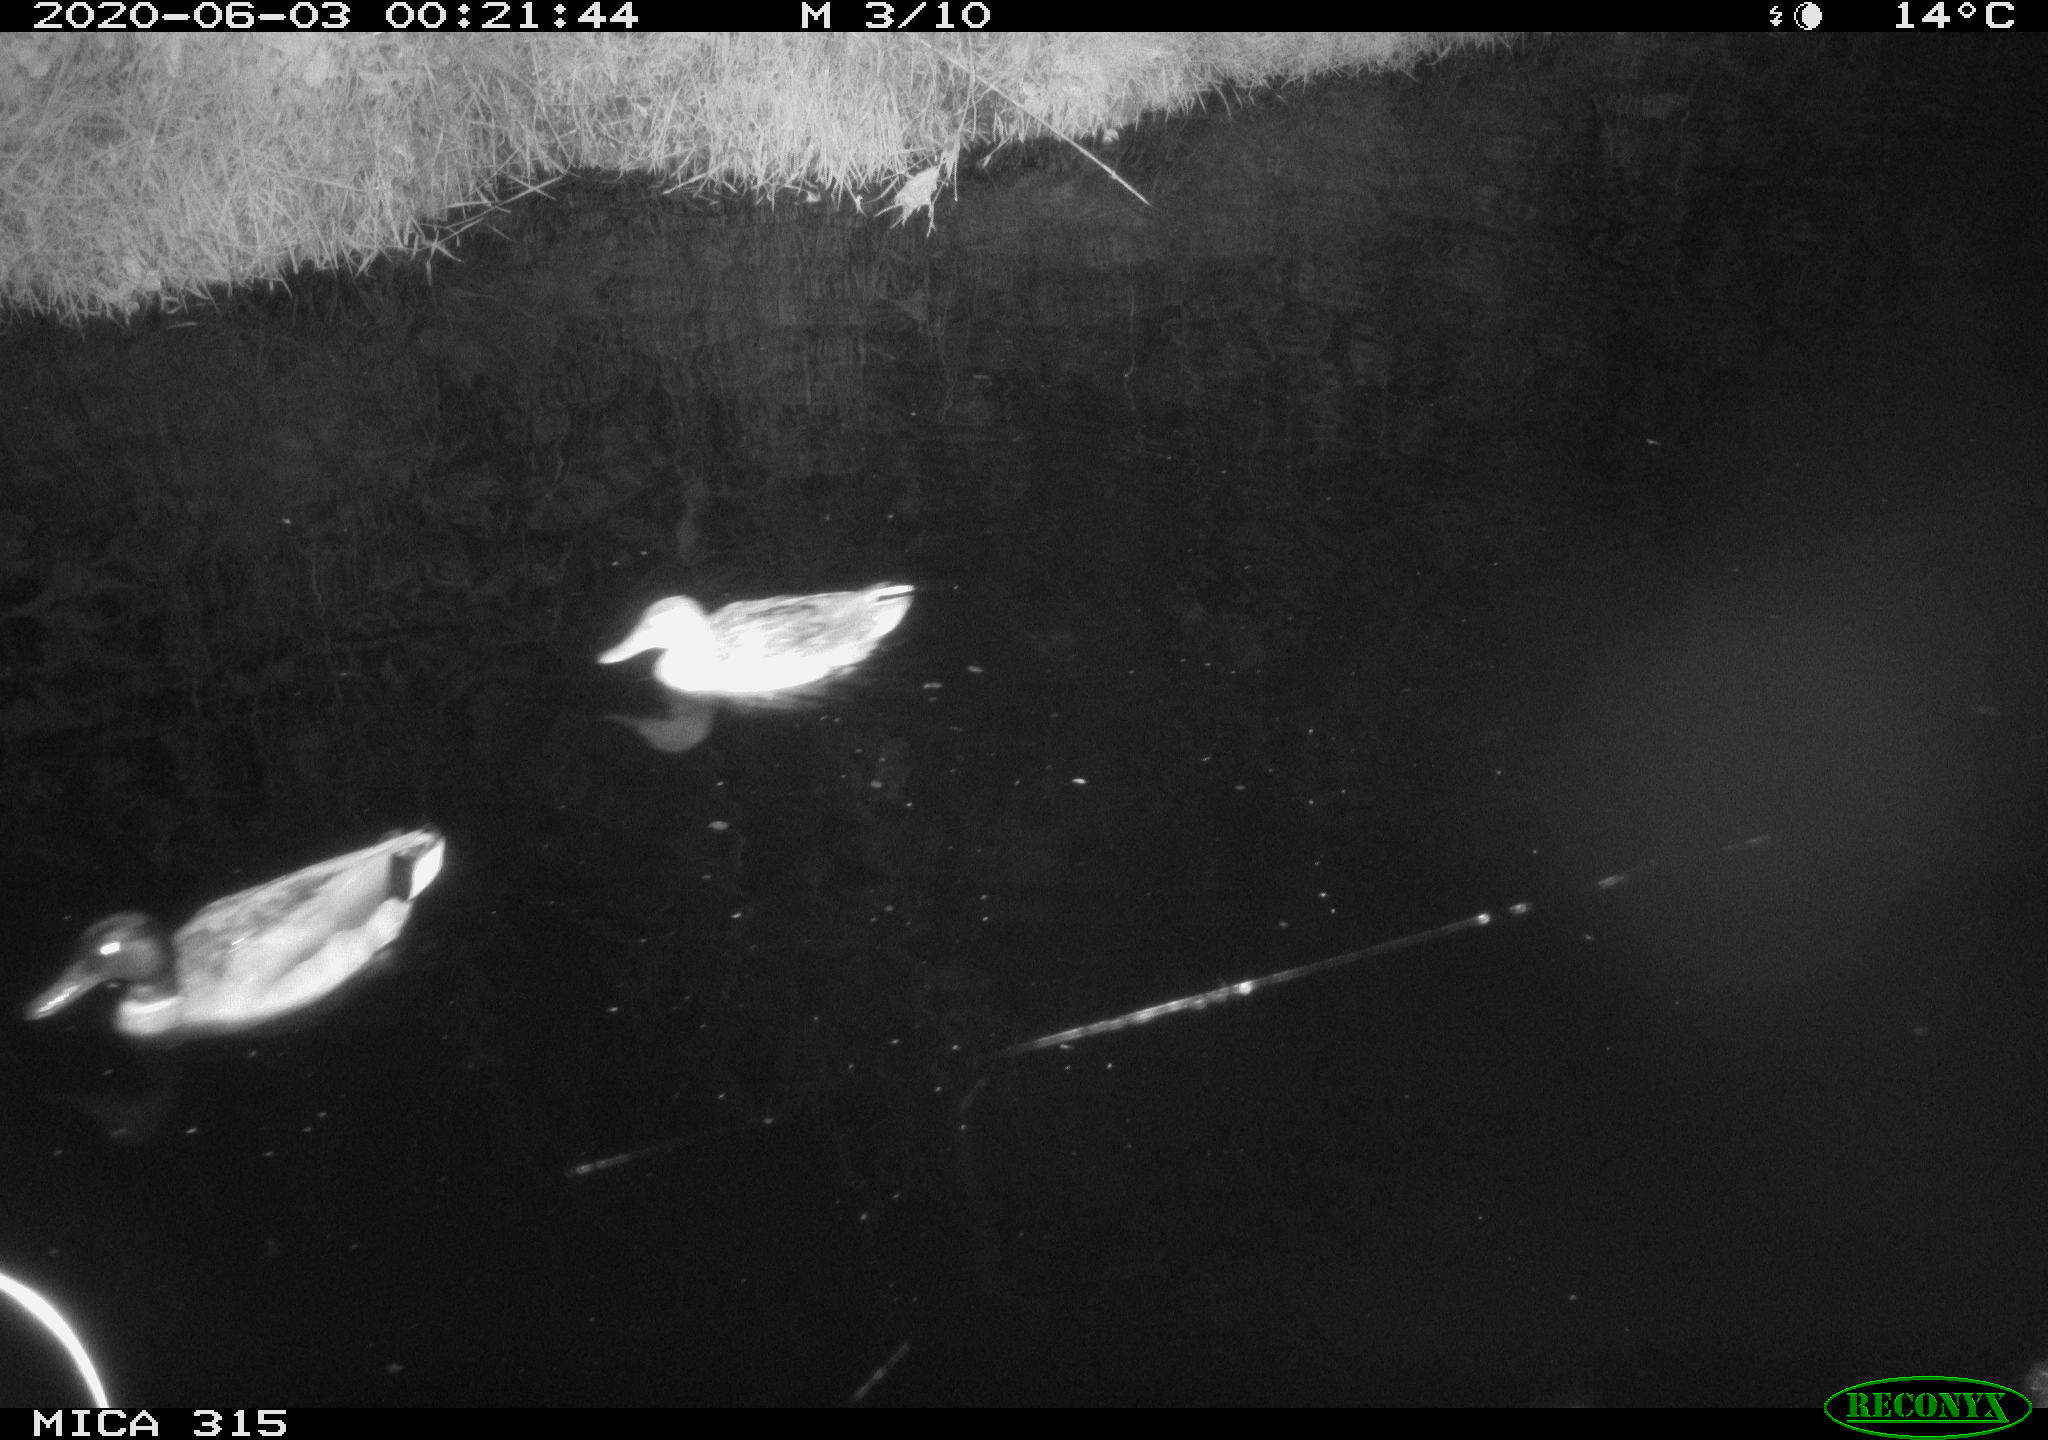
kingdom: Animalia
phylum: Chordata
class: Aves
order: Anseriformes
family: Anatidae
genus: Anas
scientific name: Anas platyrhynchos
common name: Mallard
